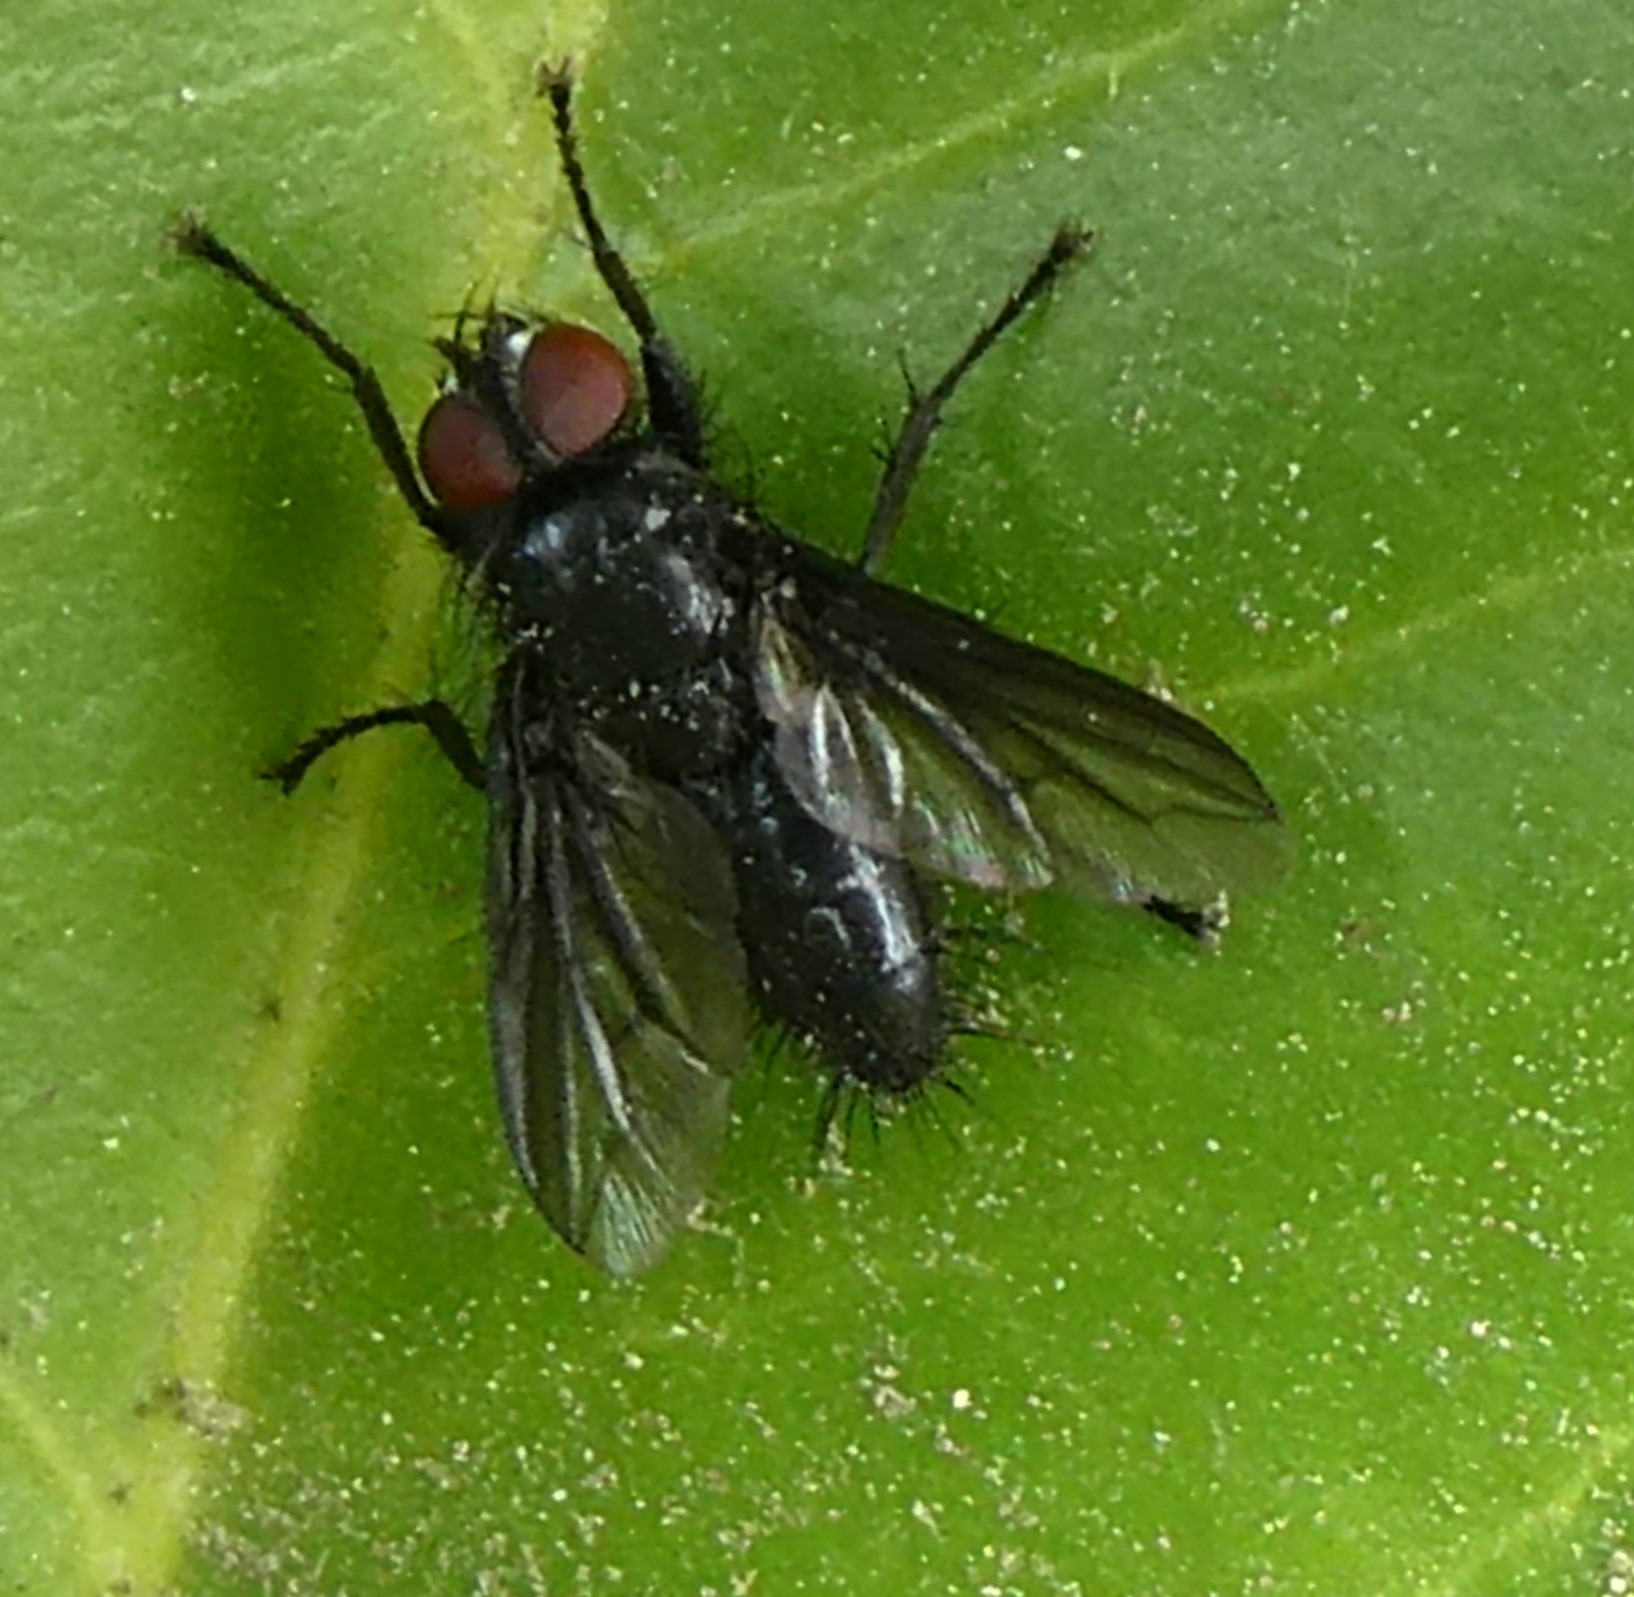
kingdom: Animalia
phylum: Arthropoda
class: Insecta
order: Diptera
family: Sarcophagidae
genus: Nyctia
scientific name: Nyctia halterata
